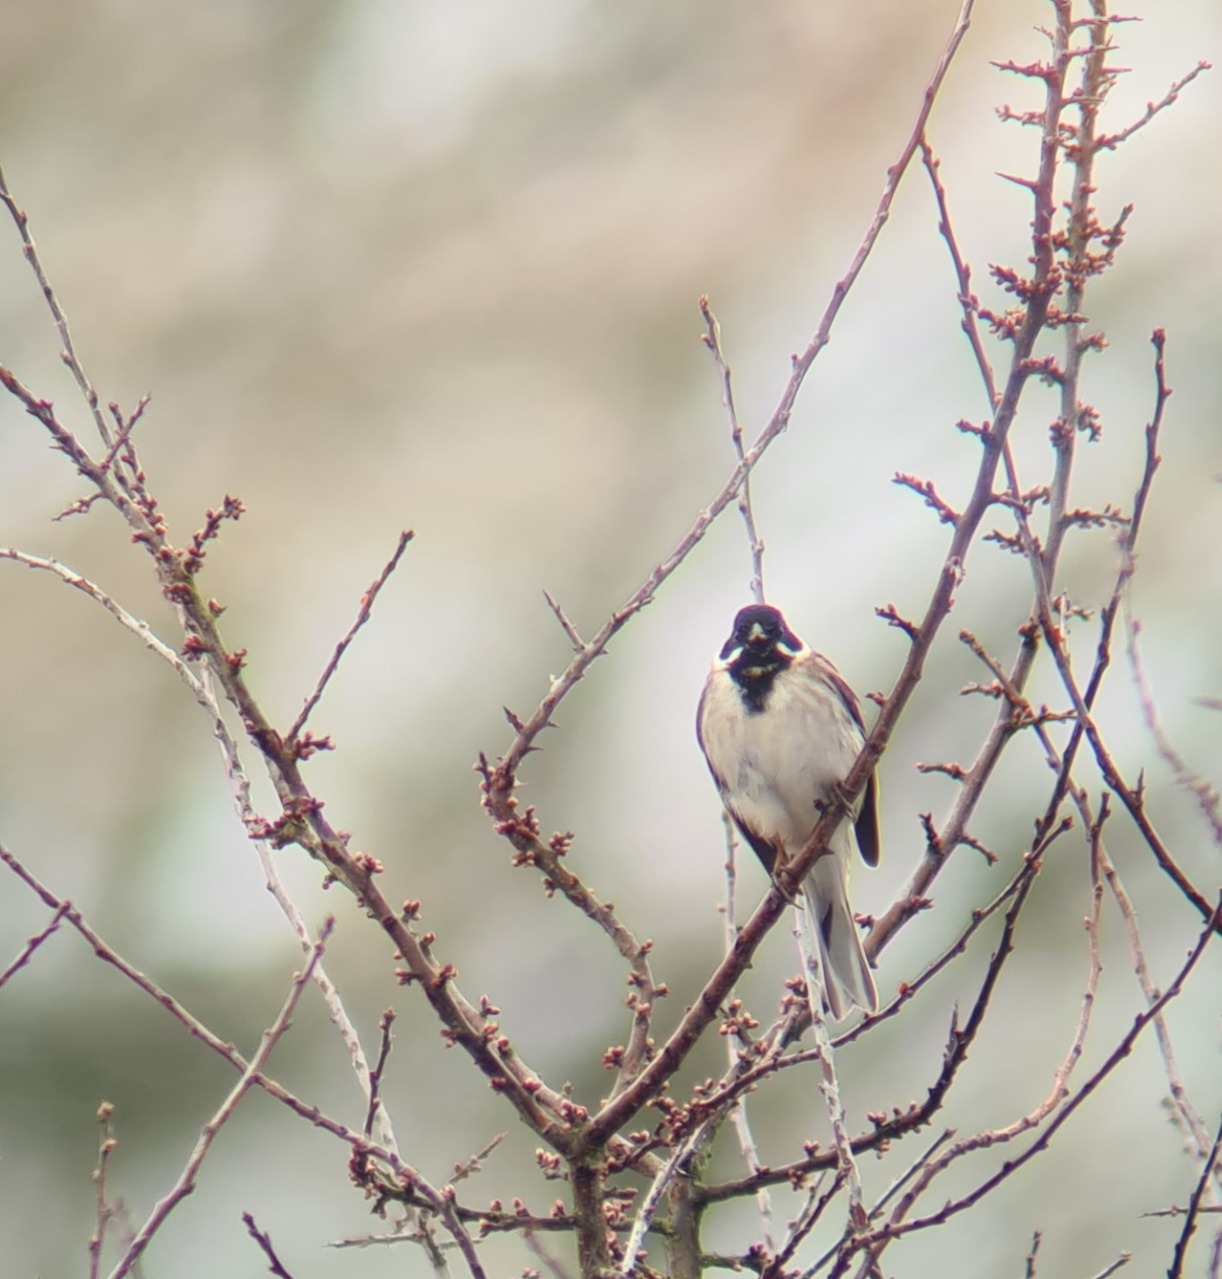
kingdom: Animalia
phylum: Chordata
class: Aves
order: Passeriformes
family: Emberizidae
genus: Emberiza
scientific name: Emberiza schoeniclus
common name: Rørspurv
